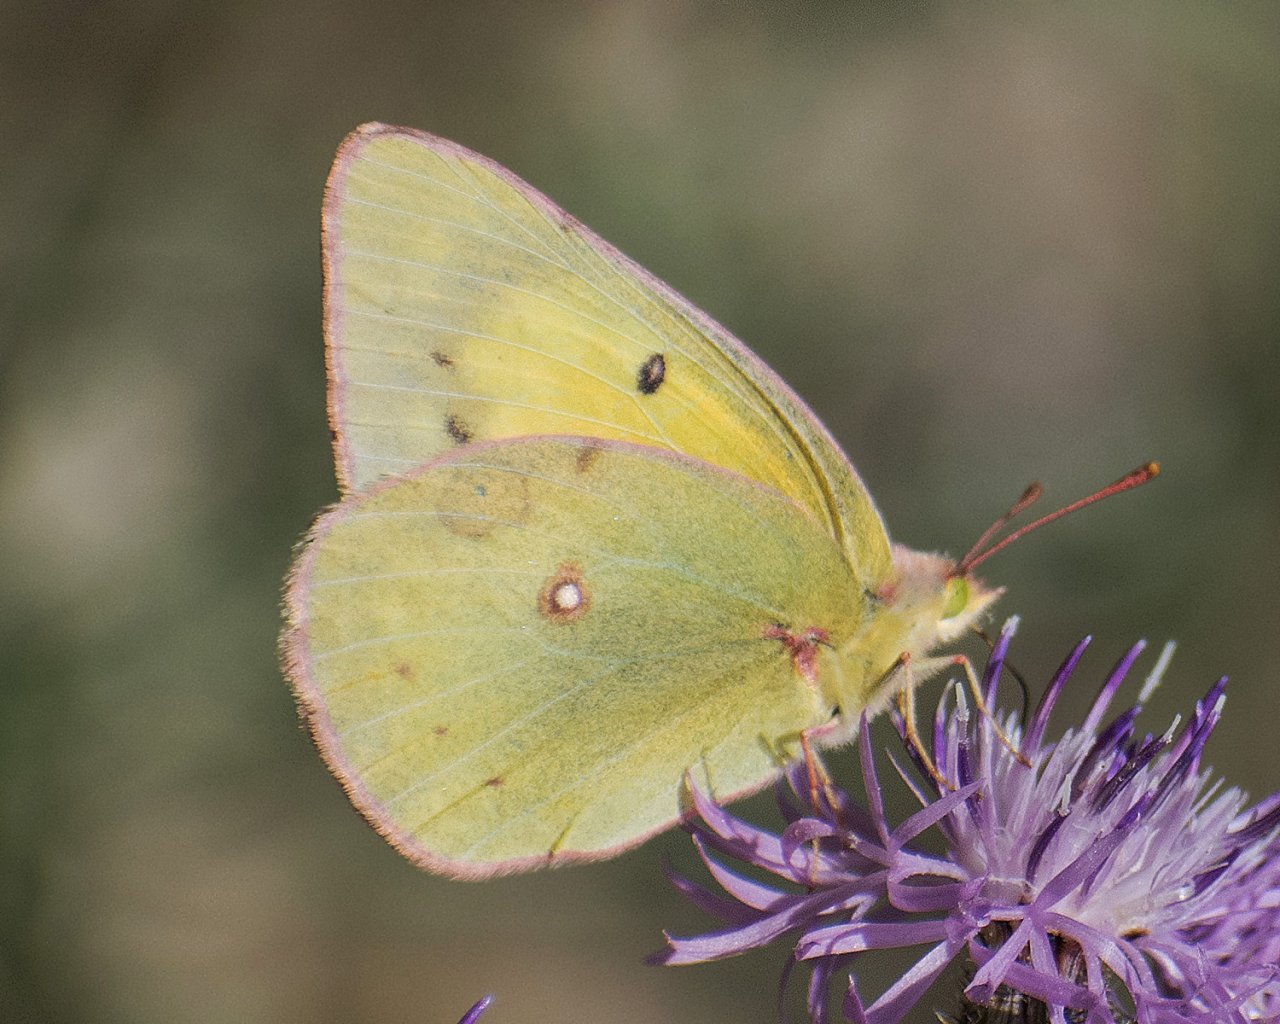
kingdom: Animalia
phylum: Arthropoda
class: Insecta
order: Lepidoptera
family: Pieridae
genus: Colias
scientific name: Colias philodice
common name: Clouded Sulphur
